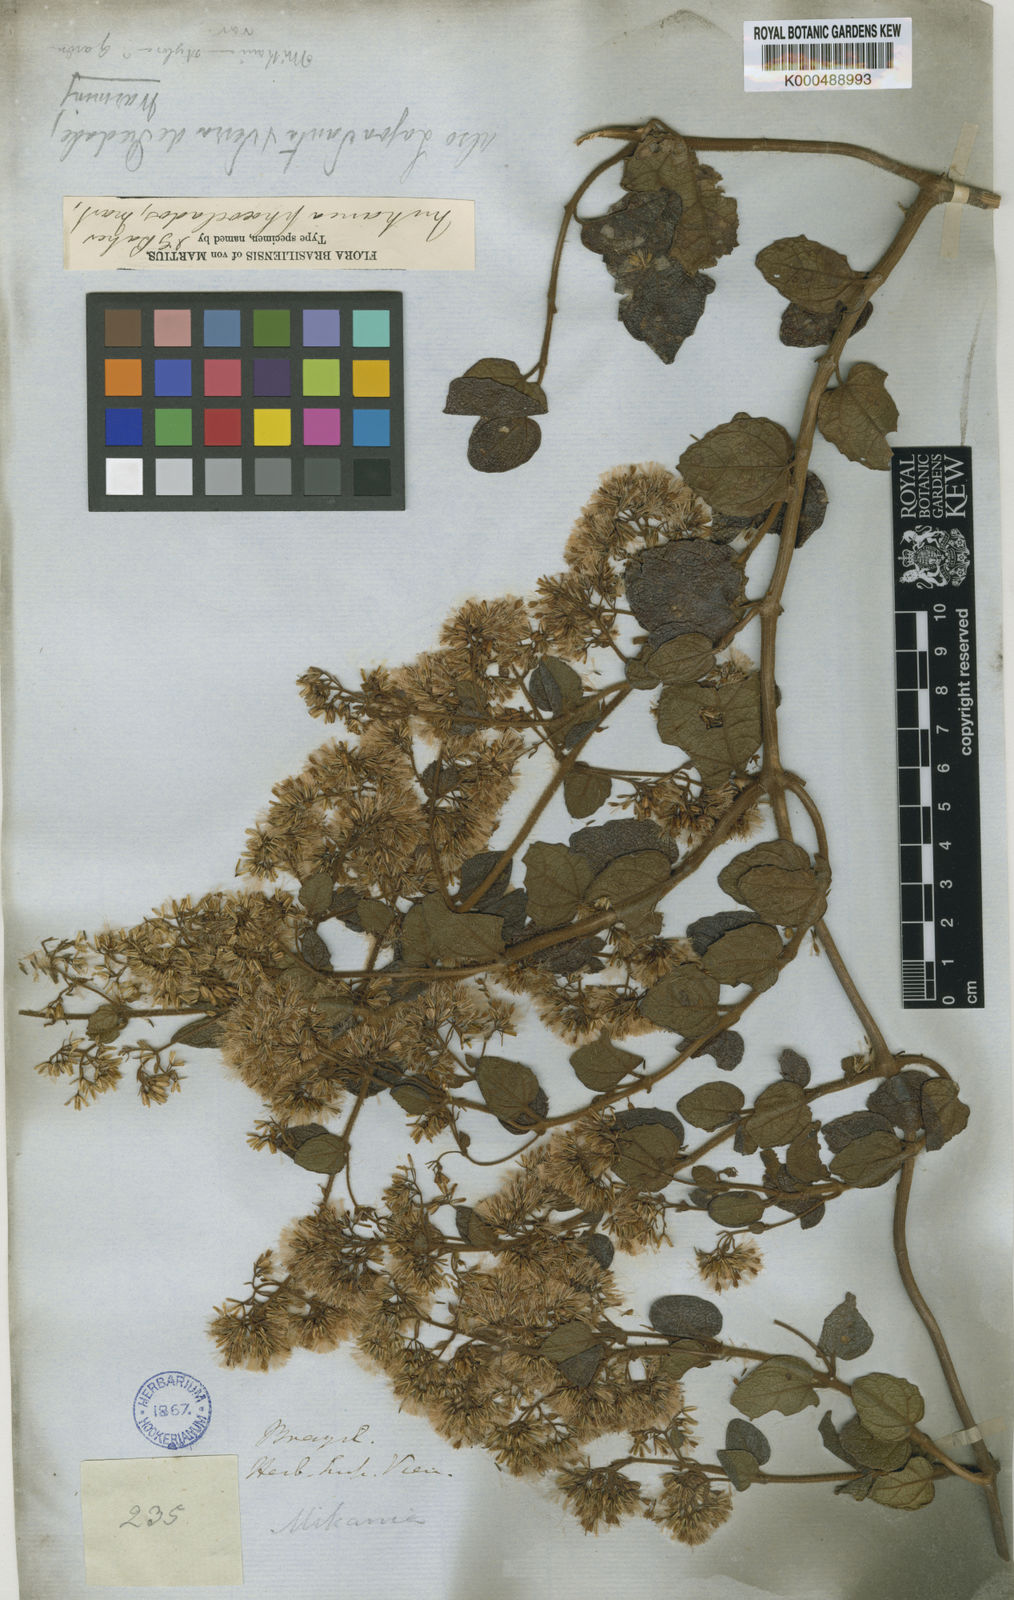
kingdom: Plantae
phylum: Tracheophyta
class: Magnoliopsida
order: Asterales
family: Asteraceae
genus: Mikania
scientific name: Mikania
